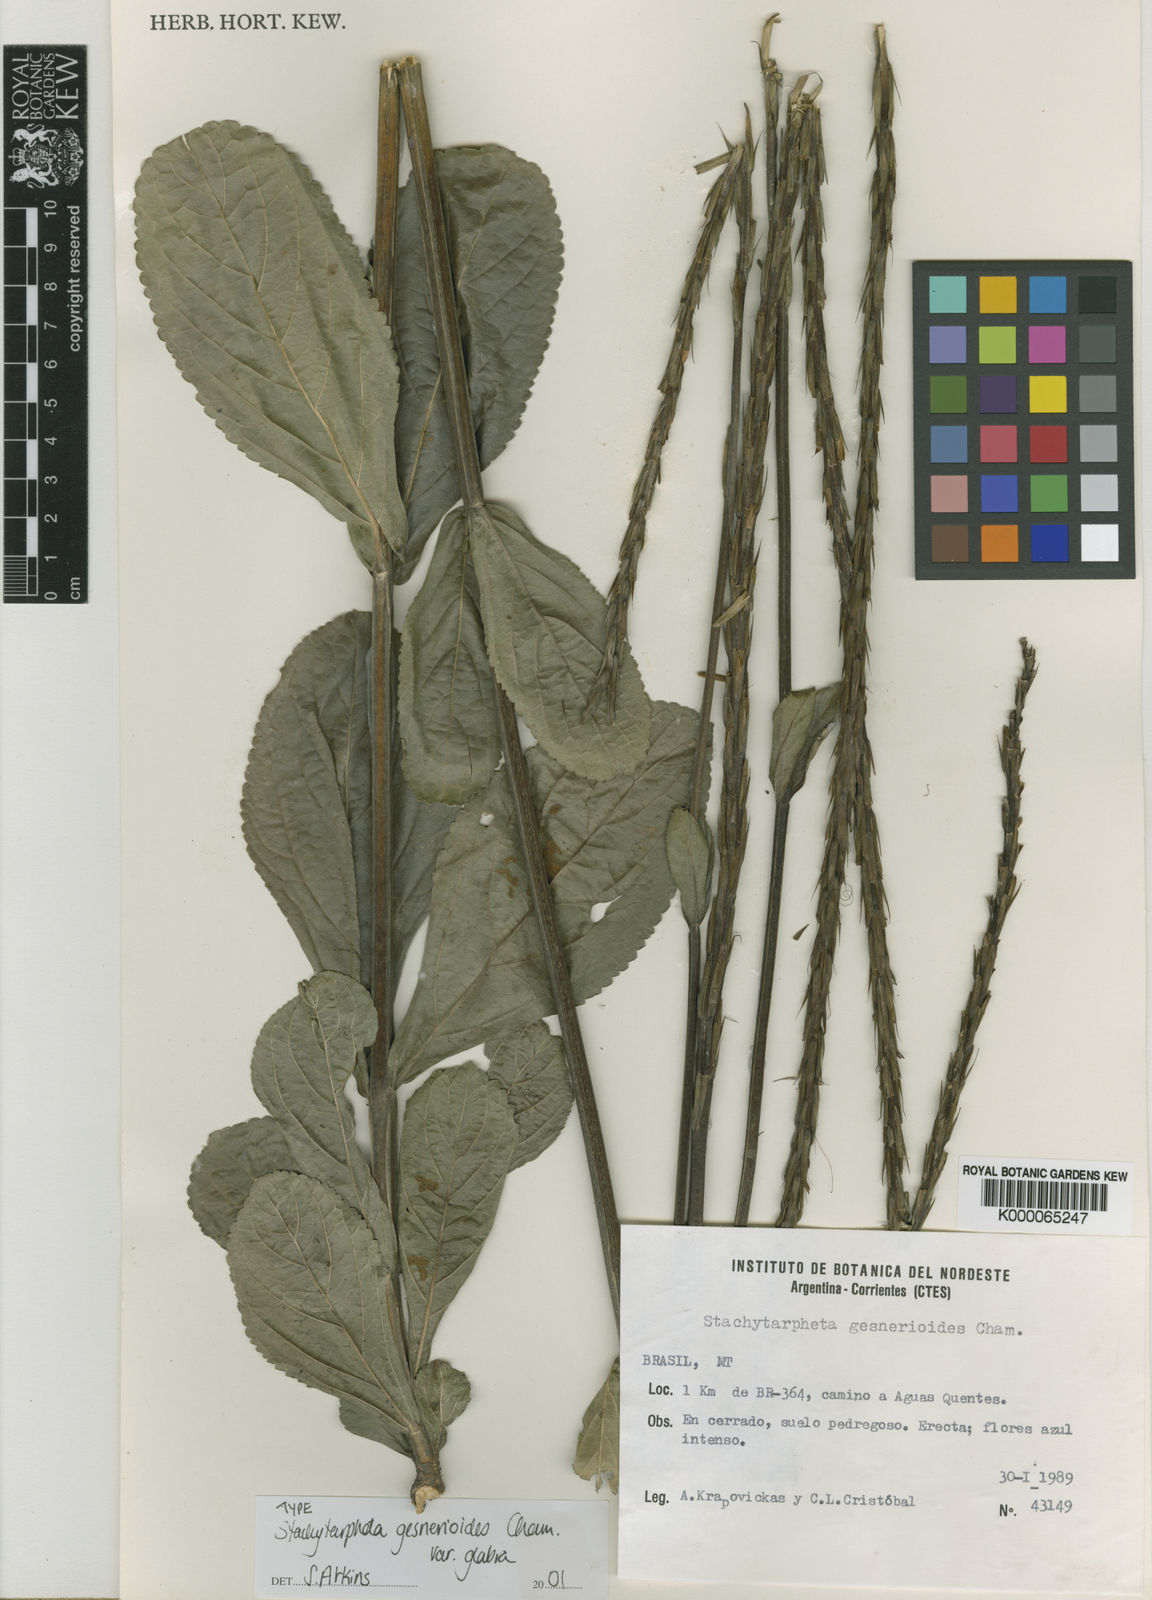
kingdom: Plantae
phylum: Tracheophyta
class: Magnoliopsida
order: Lamiales
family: Verbenaceae
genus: Stachytarpheta
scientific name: Stachytarpheta gesnerioides
